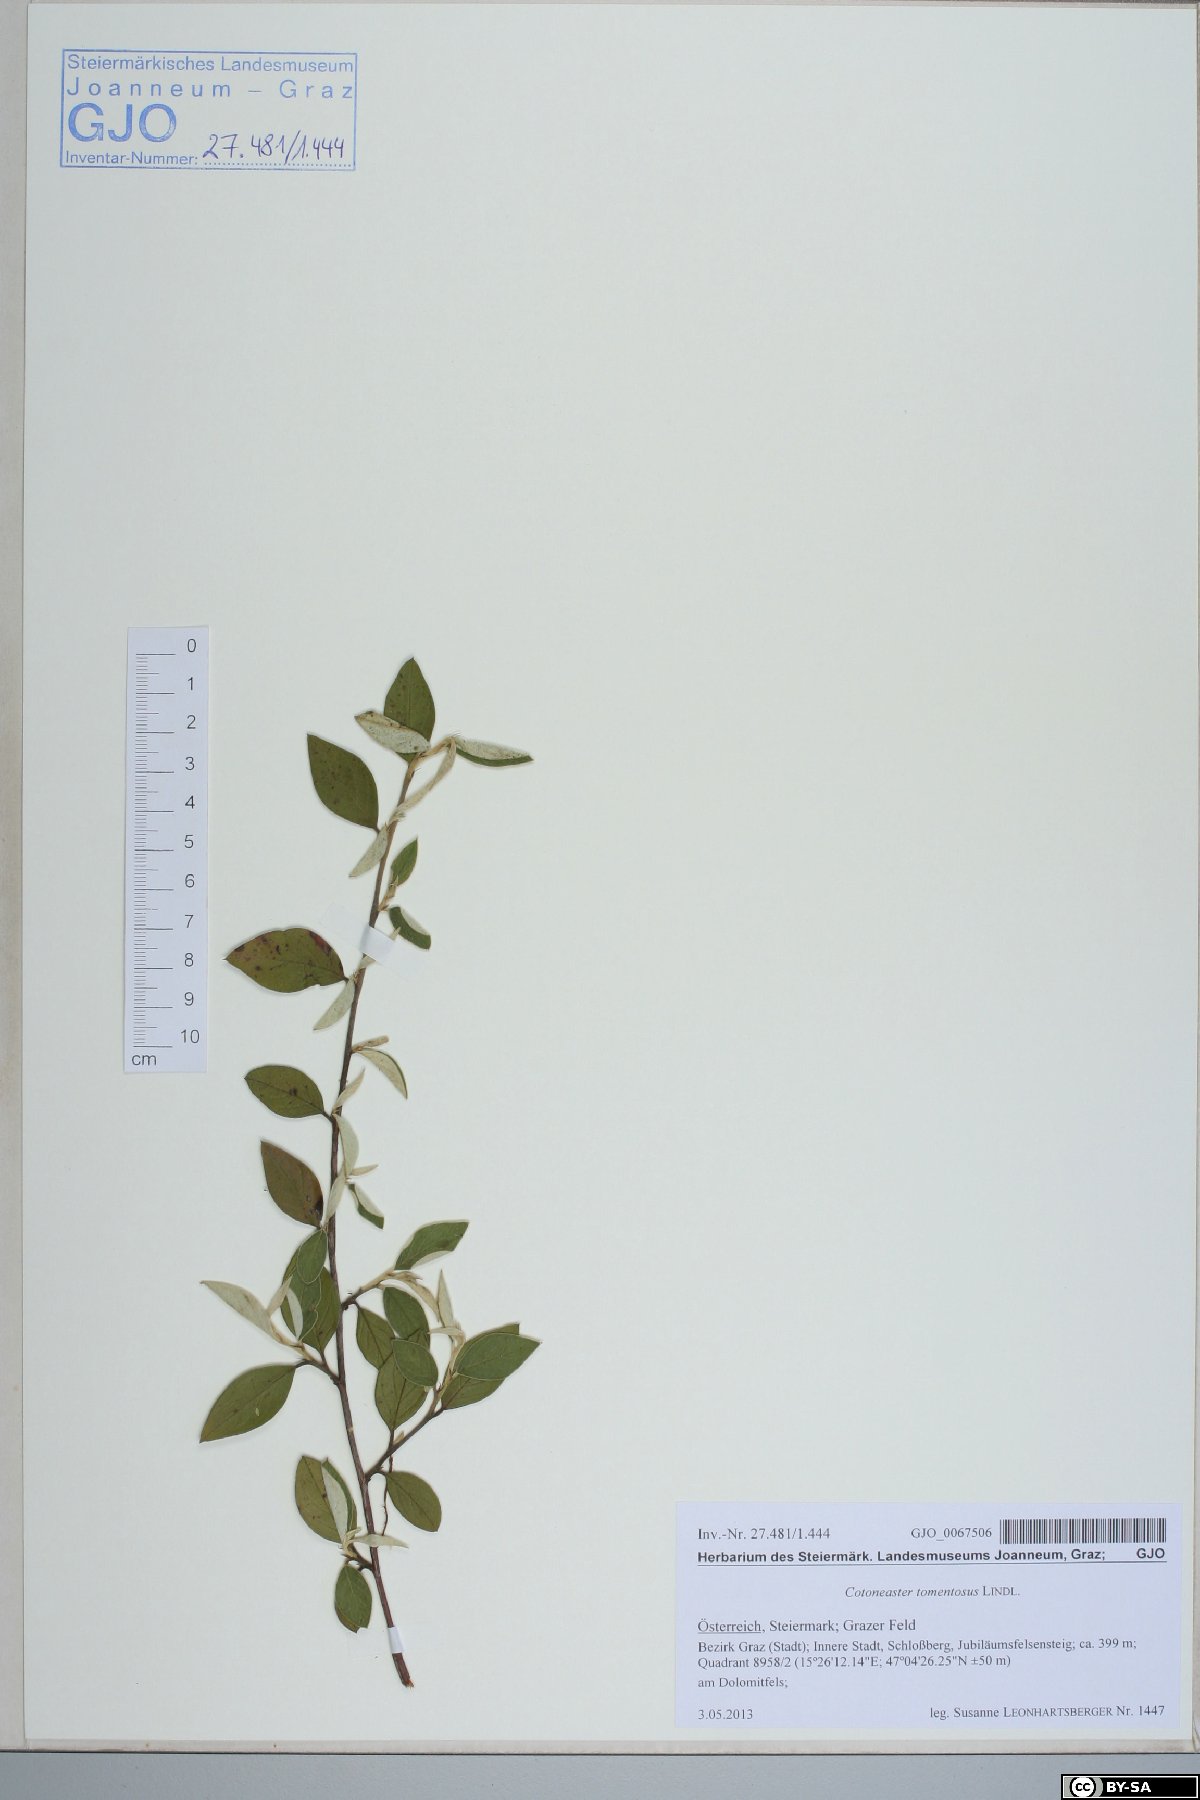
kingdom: Plantae
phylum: Tracheophyta
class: Magnoliopsida
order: Rosales
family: Rosaceae
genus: Cotoneaster
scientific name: Cotoneaster tomentosus
